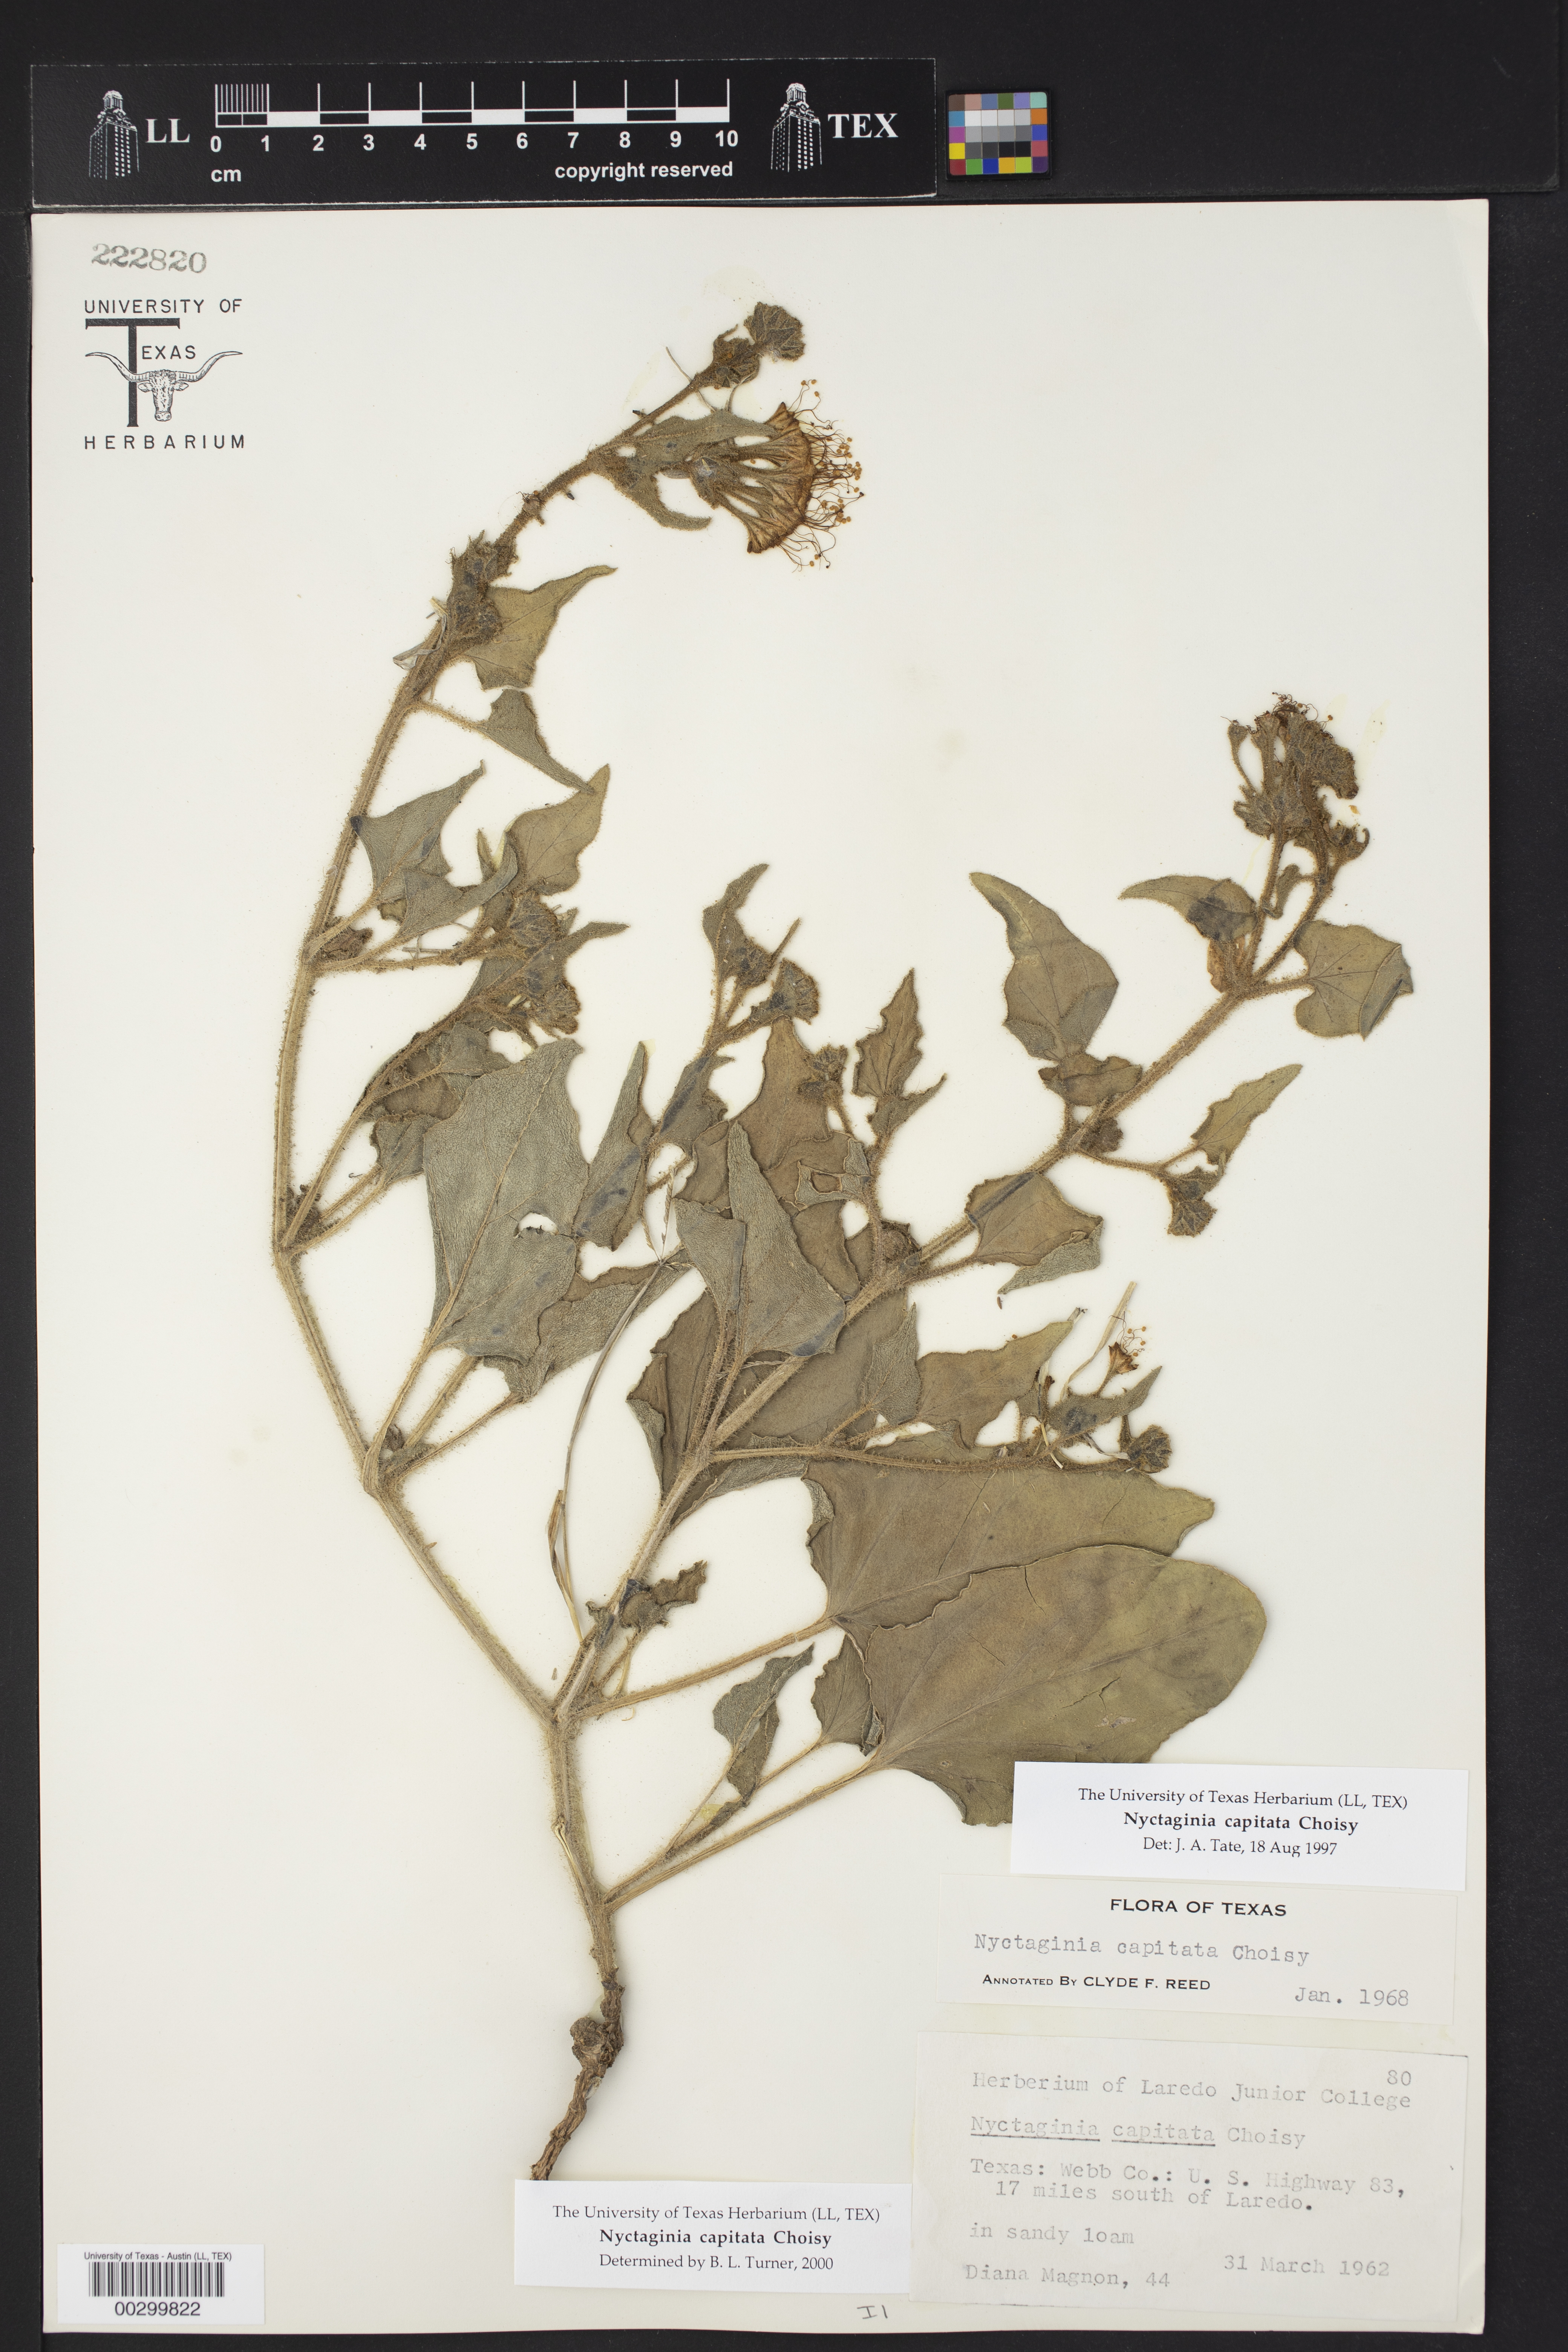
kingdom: Plantae
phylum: Tracheophyta
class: Magnoliopsida
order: Caryophyllales
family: Nyctaginaceae
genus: Nyctaginia
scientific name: Nyctaginia capitata
